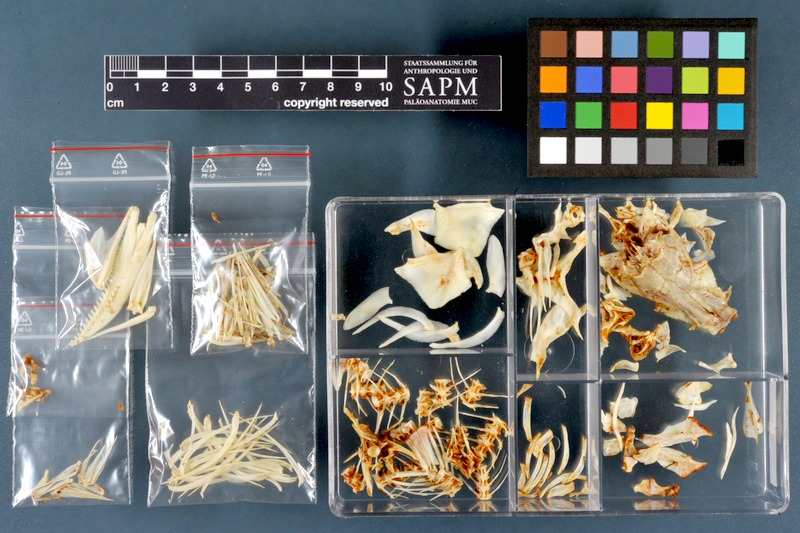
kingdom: Animalia
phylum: Chordata
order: Cypriniformes
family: Cyprinidae
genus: Capoeta
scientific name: Capoeta damascina
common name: Levantine scraper
